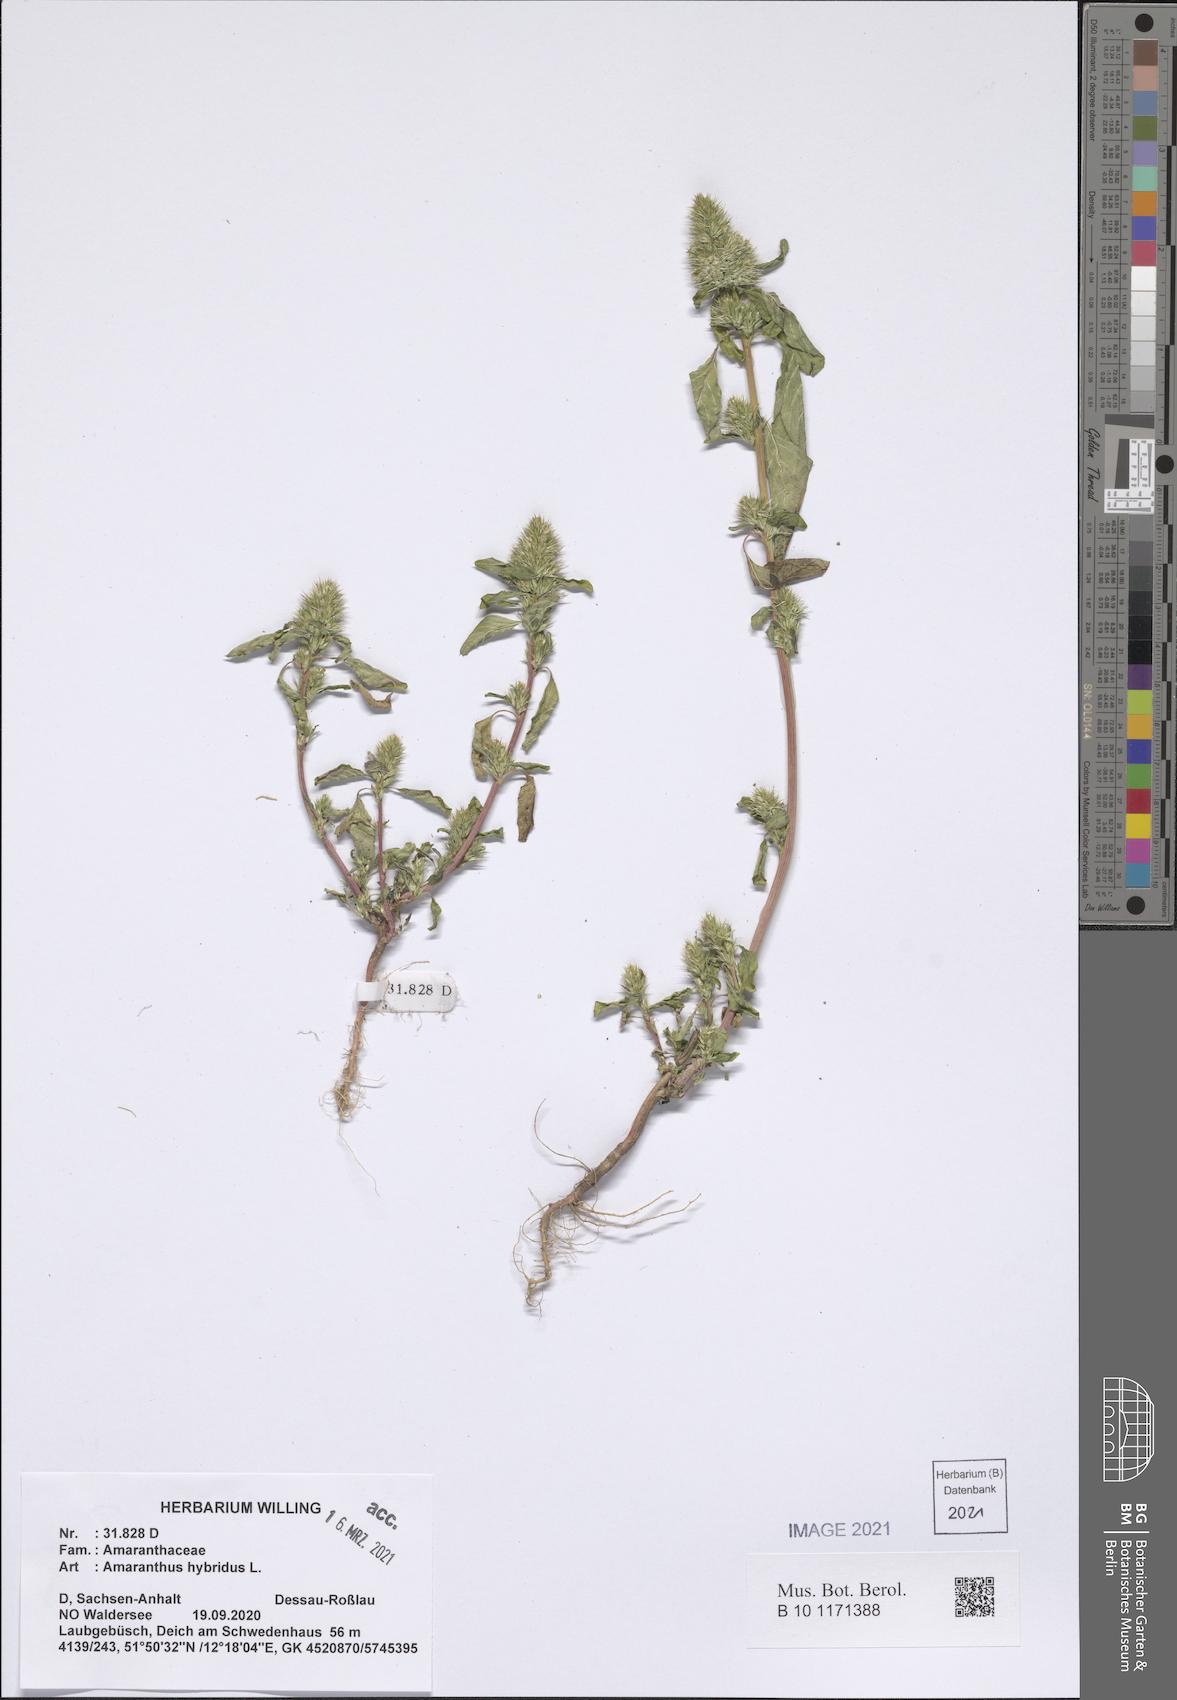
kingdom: Plantae
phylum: Tracheophyta
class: Magnoliopsida
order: Caryophyllales
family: Amaranthaceae
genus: Amaranthus
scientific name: Amaranthus hybridus
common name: Green amaranth
